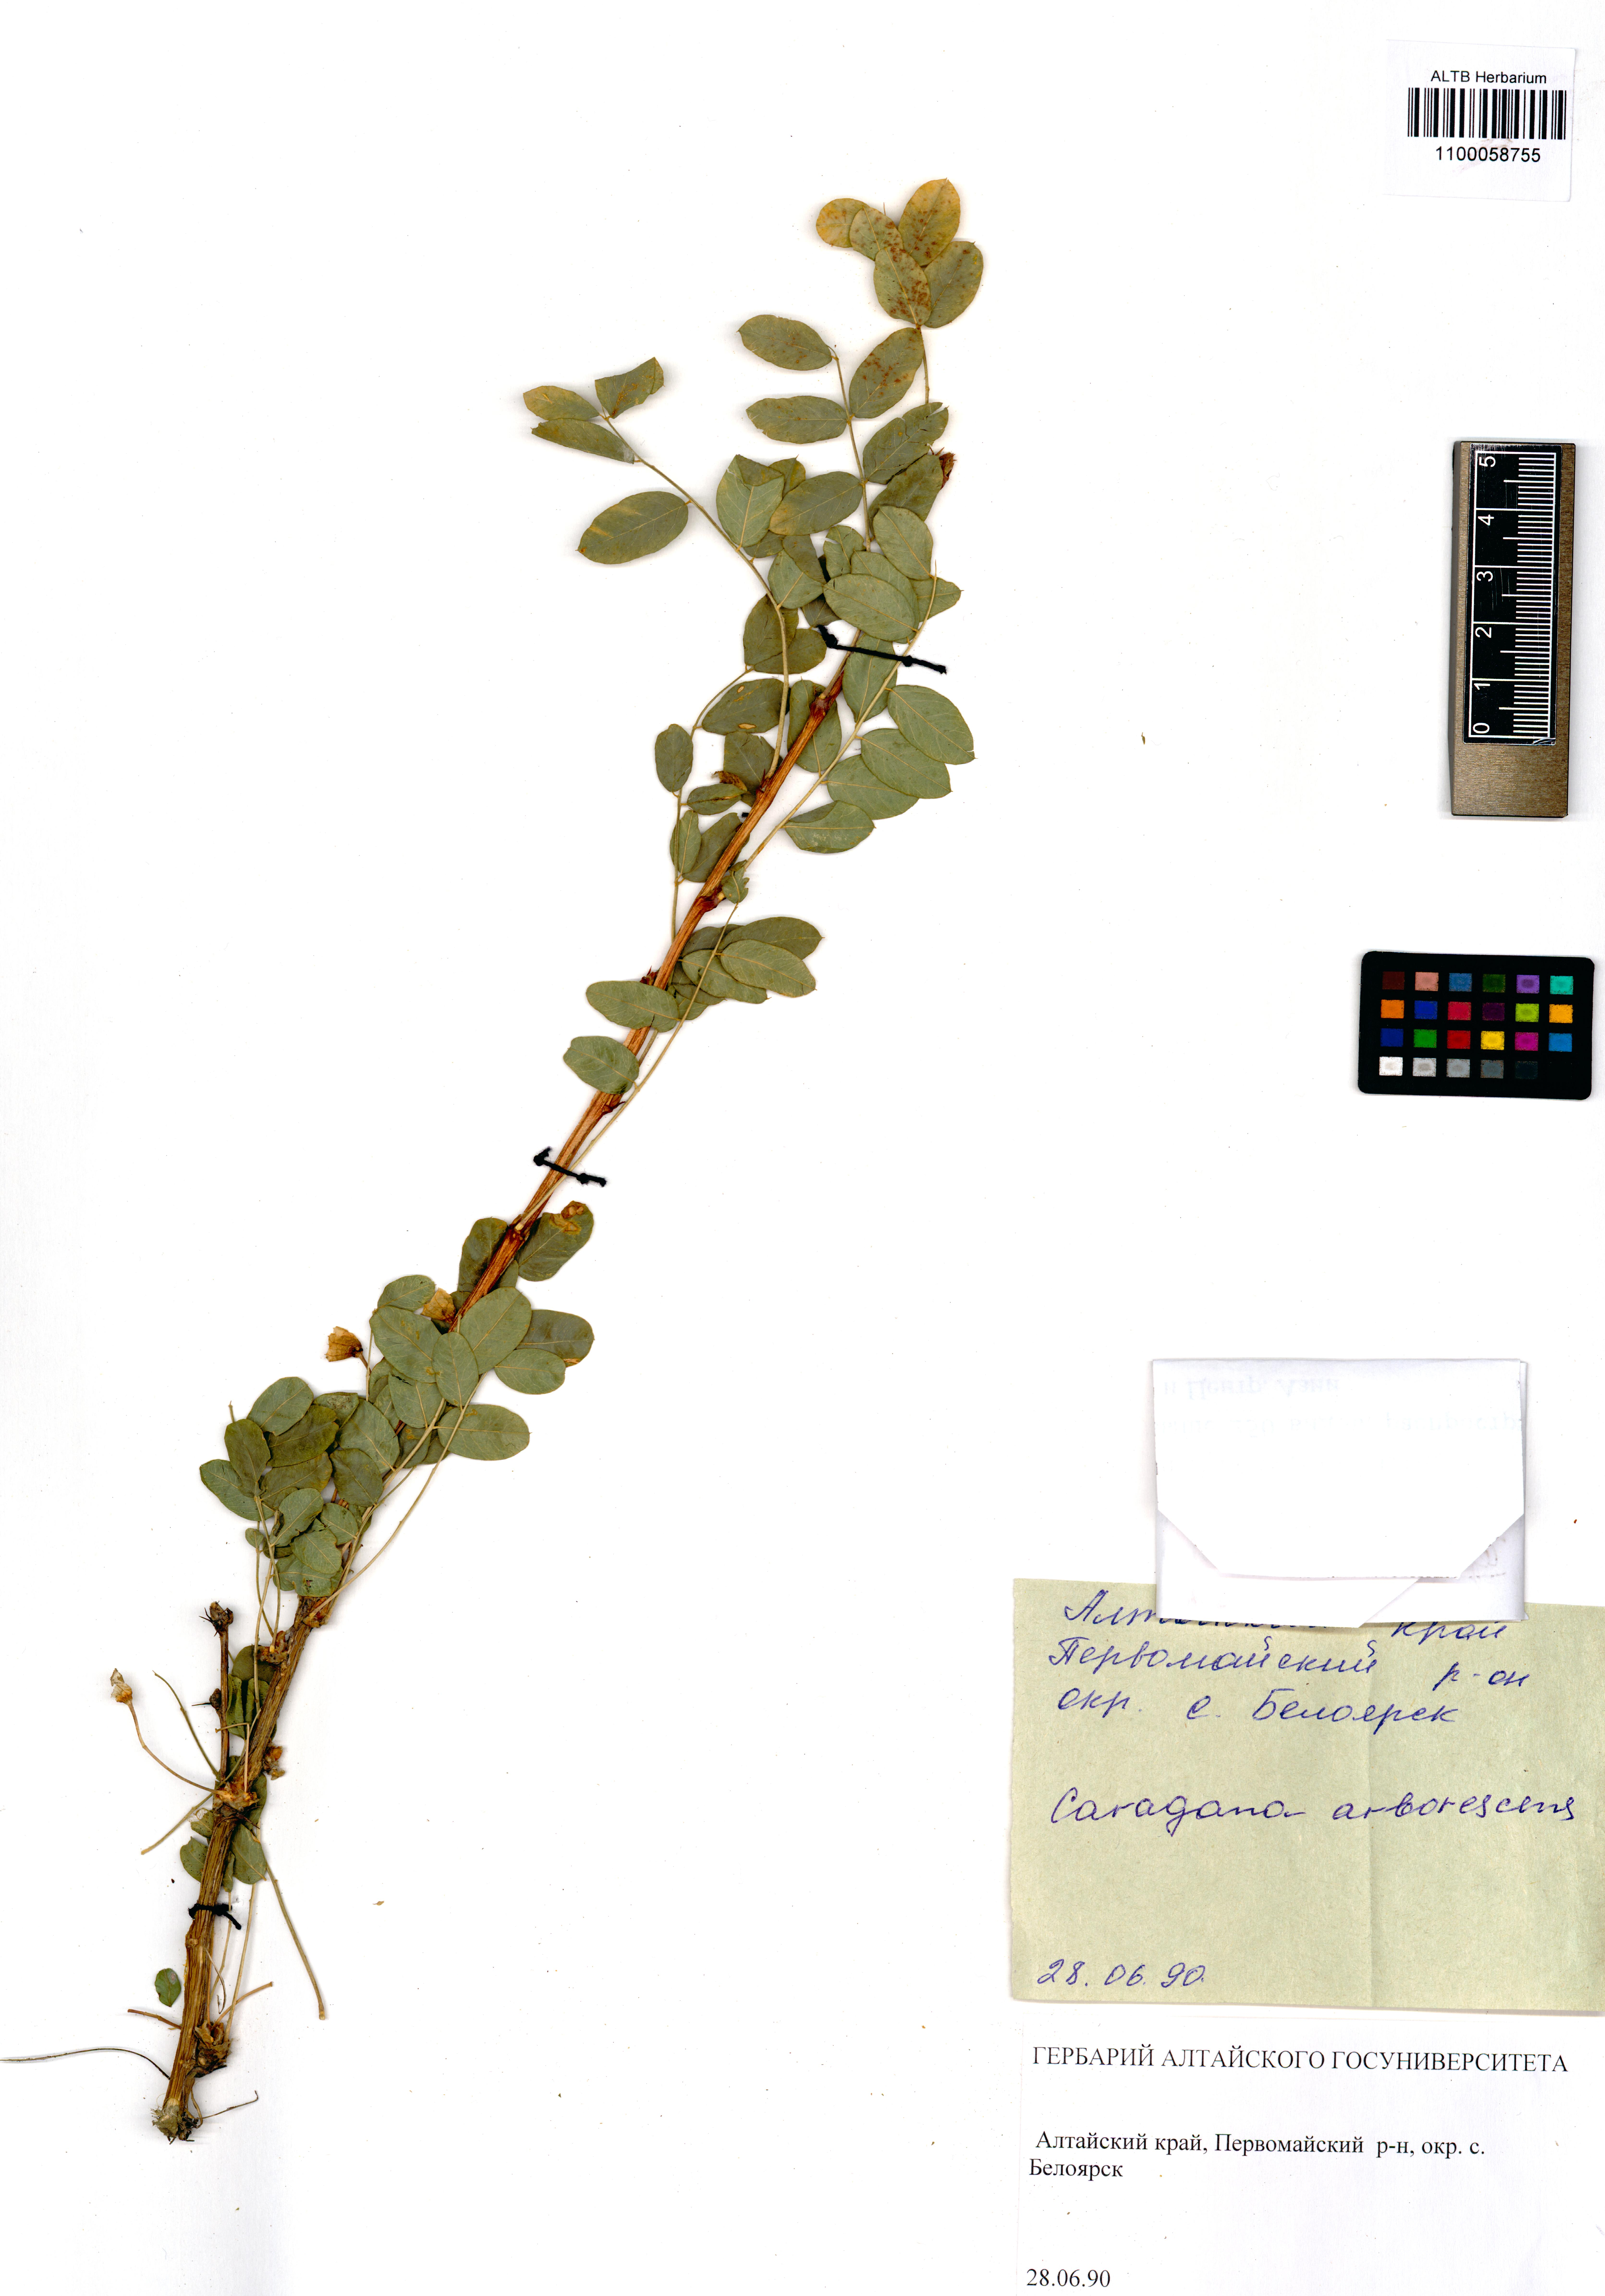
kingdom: Plantae
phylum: Tracheophyta
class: Magnoliopsida
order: Fabales
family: Fabaceae
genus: Caragana
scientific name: Caragana arborescens
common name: Siberian peashrub
